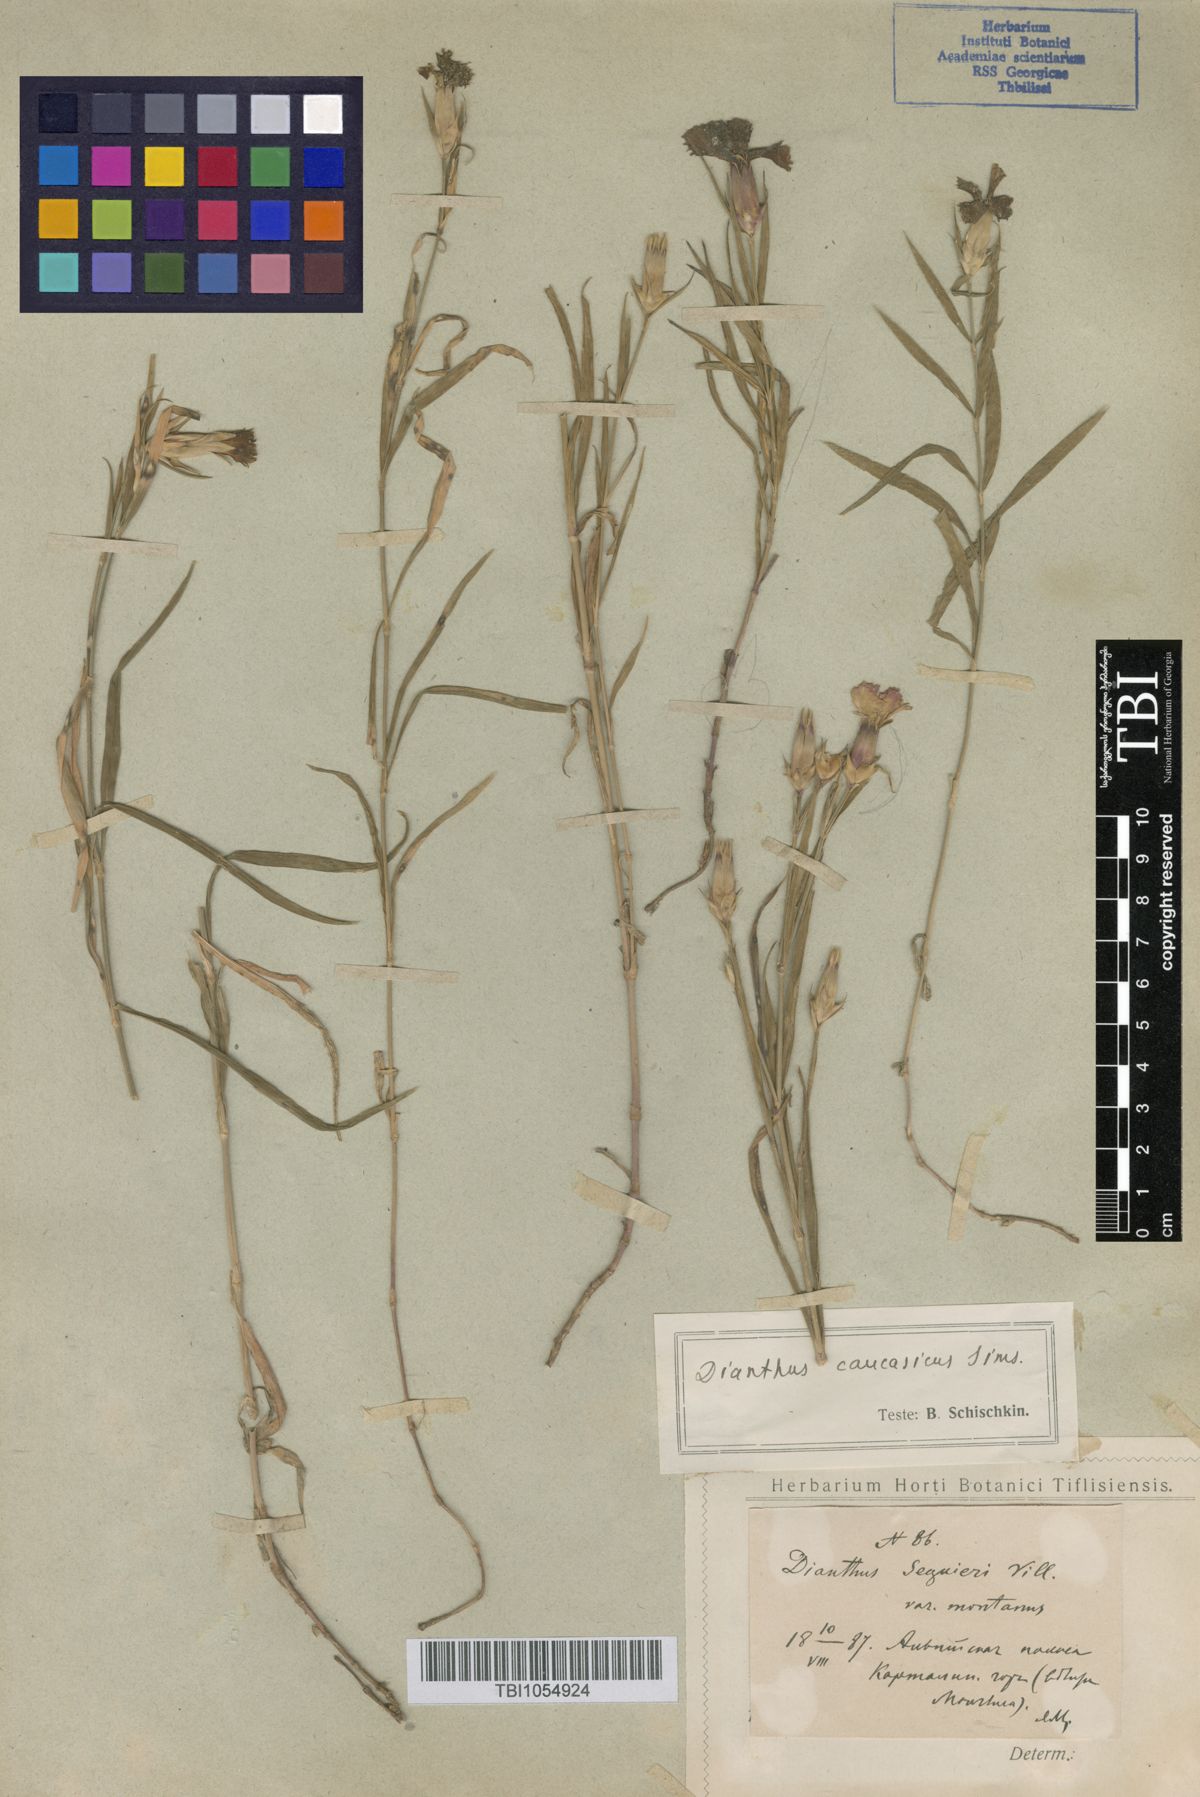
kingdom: Plantae
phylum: Tracheophyta
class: Magnoliopsida
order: Caryophyllales
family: Caryophyllaceae
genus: Dianthus
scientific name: Dianthus caucaseus
